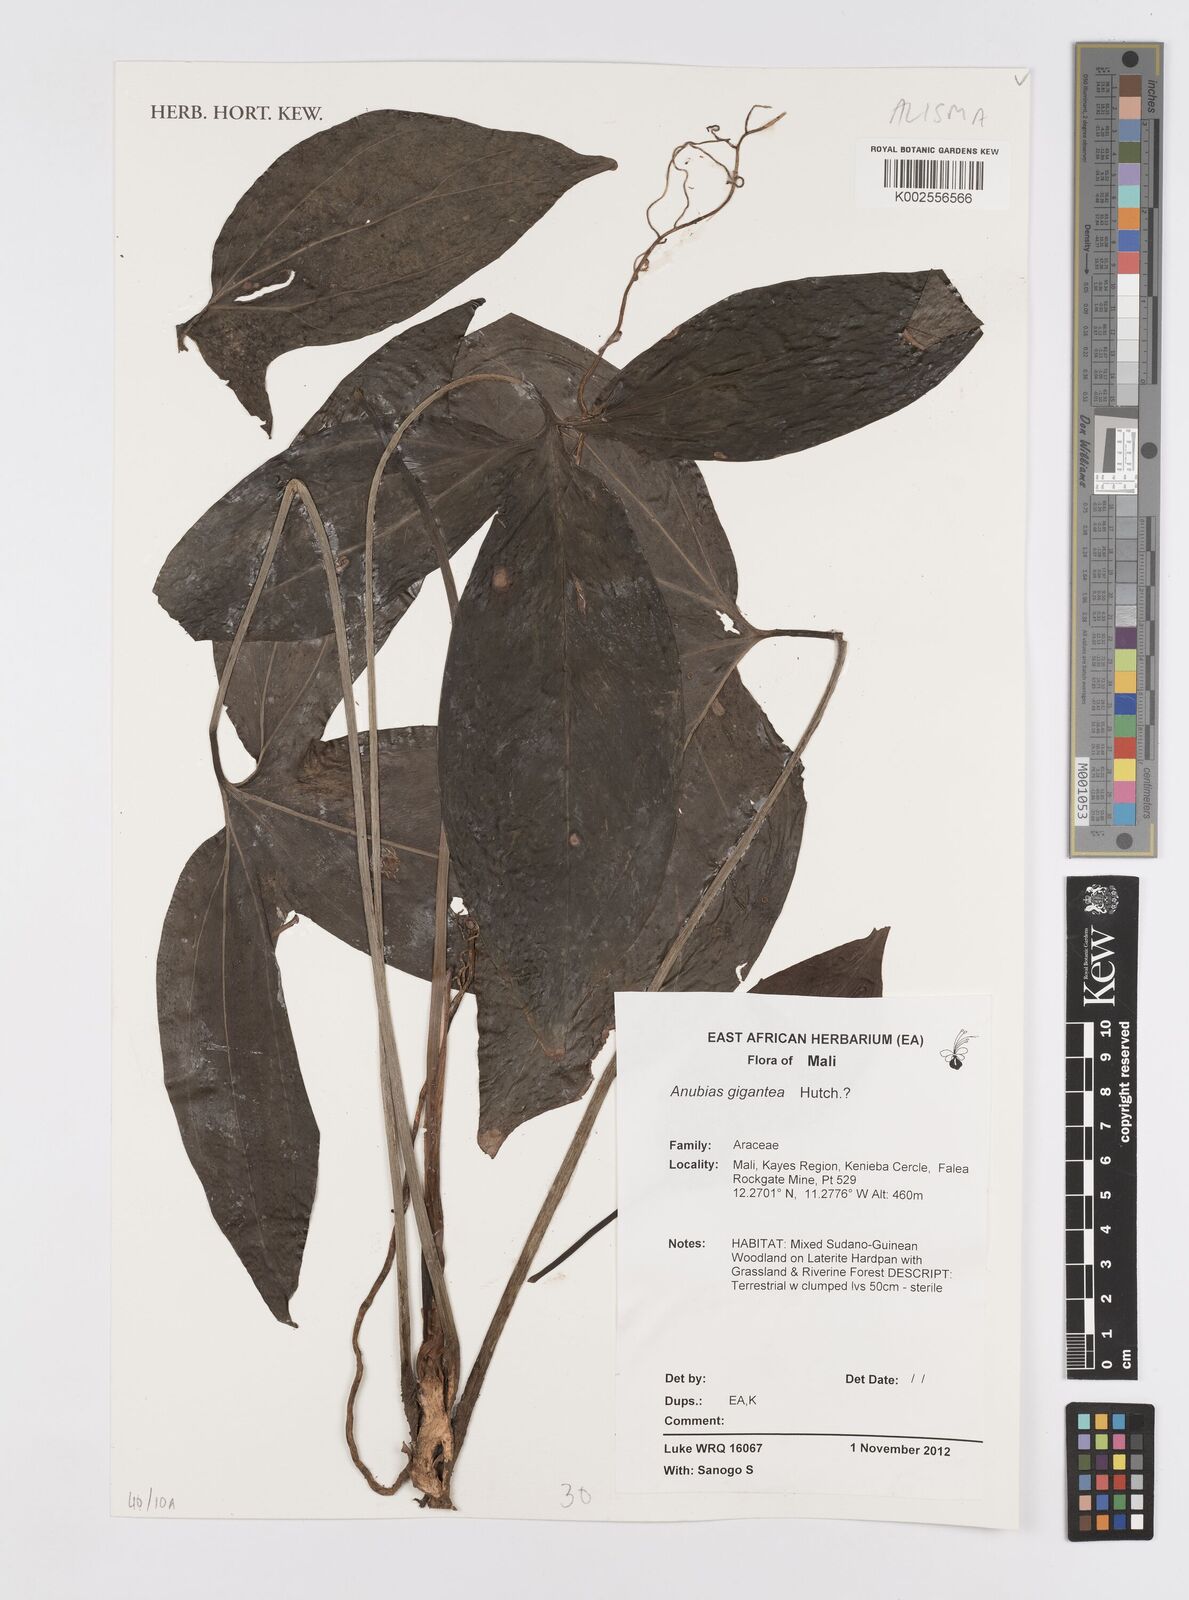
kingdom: Plantae
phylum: Tracheophyta
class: Liliopsida
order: Alismatales
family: Araceae
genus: Anubias
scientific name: Anubias gigantea
